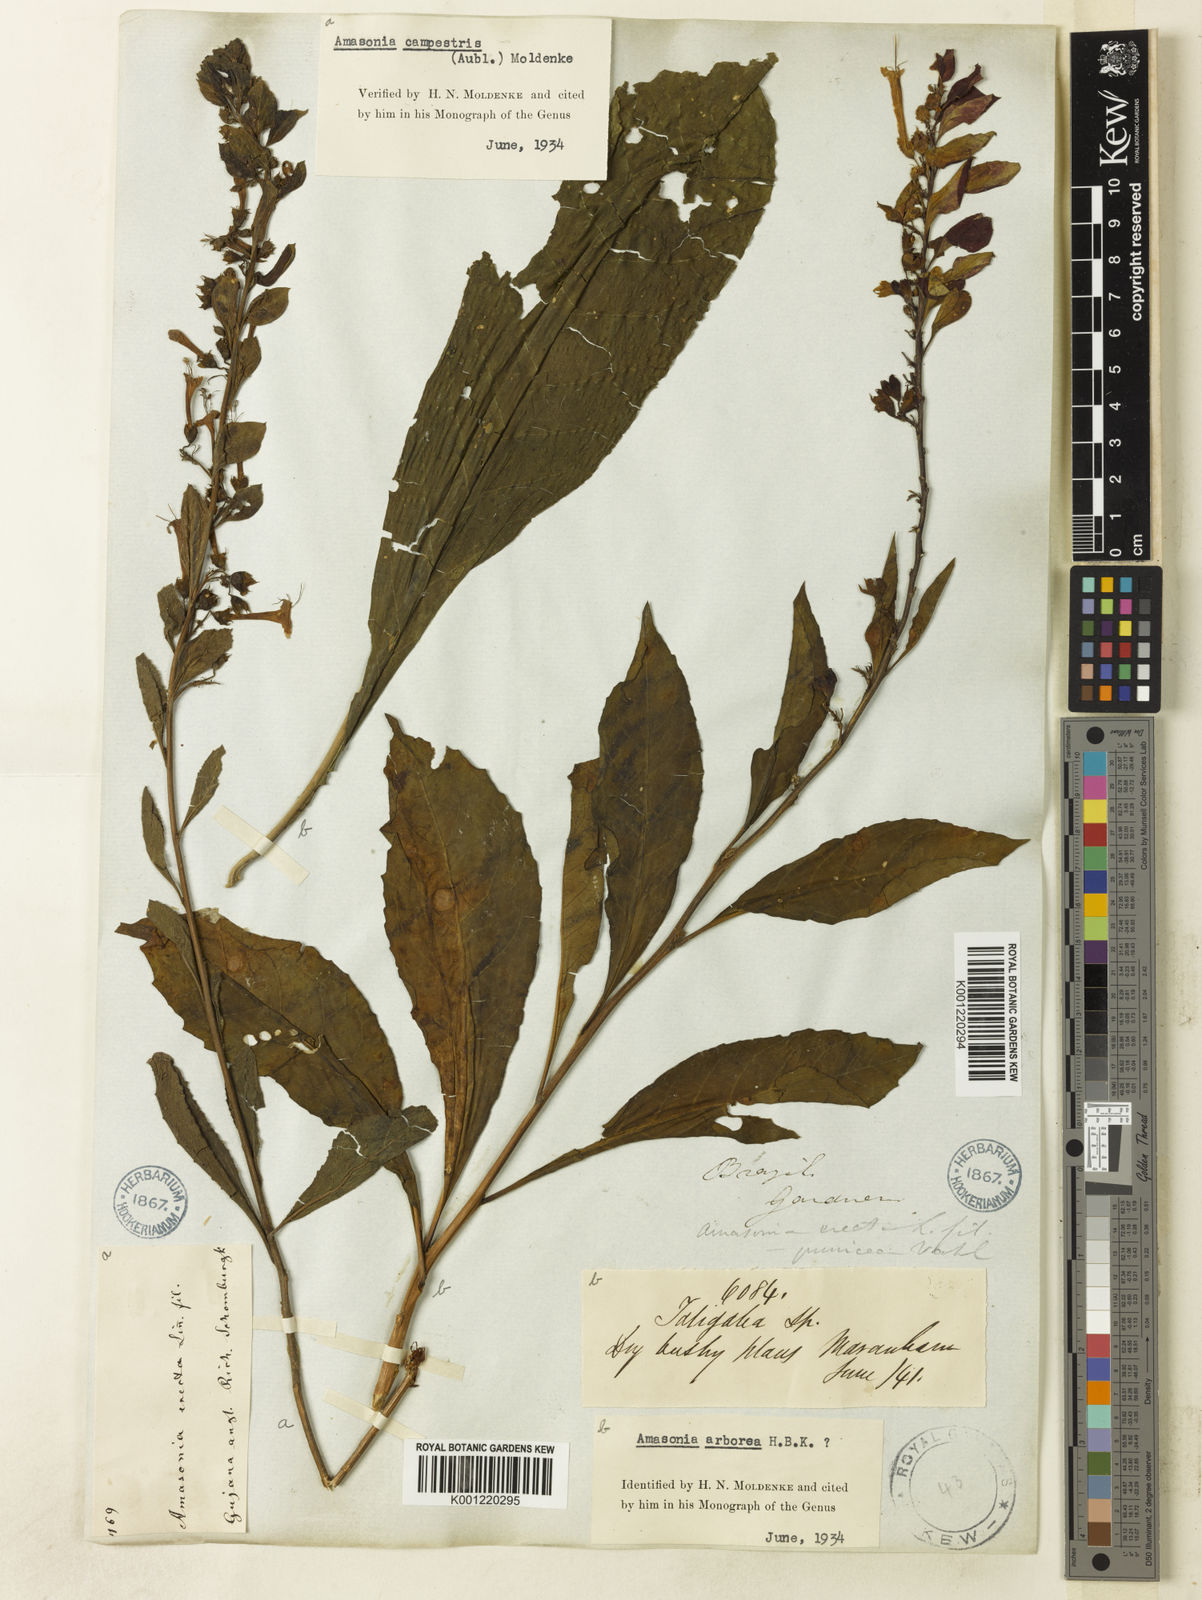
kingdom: Plantae
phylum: Tracheophyta
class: Magnoliopsida
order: Lamiales
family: Lamiaceae
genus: Amasonia
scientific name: Amasonia arborea
